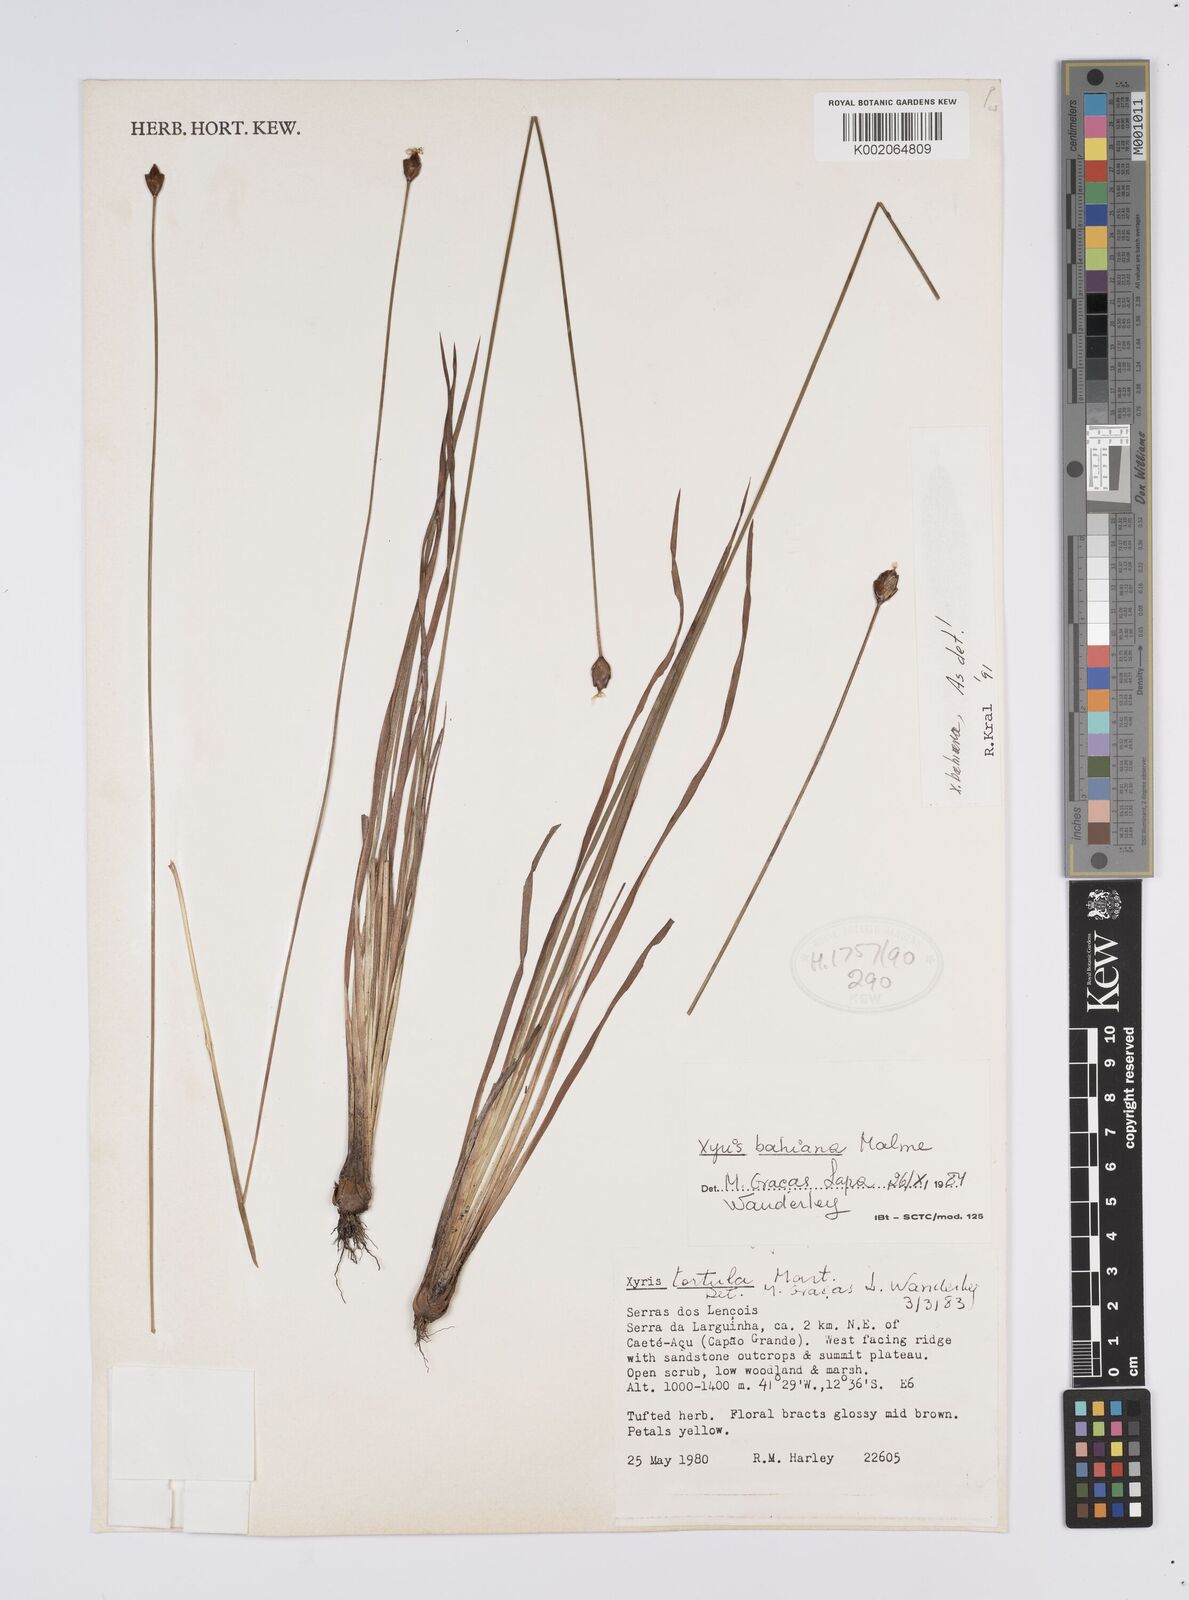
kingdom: Plantae
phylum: Tracheophyta
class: Liliopsida
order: Poales
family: Xyridaceae
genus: Xyris
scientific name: Xyris bahiana
